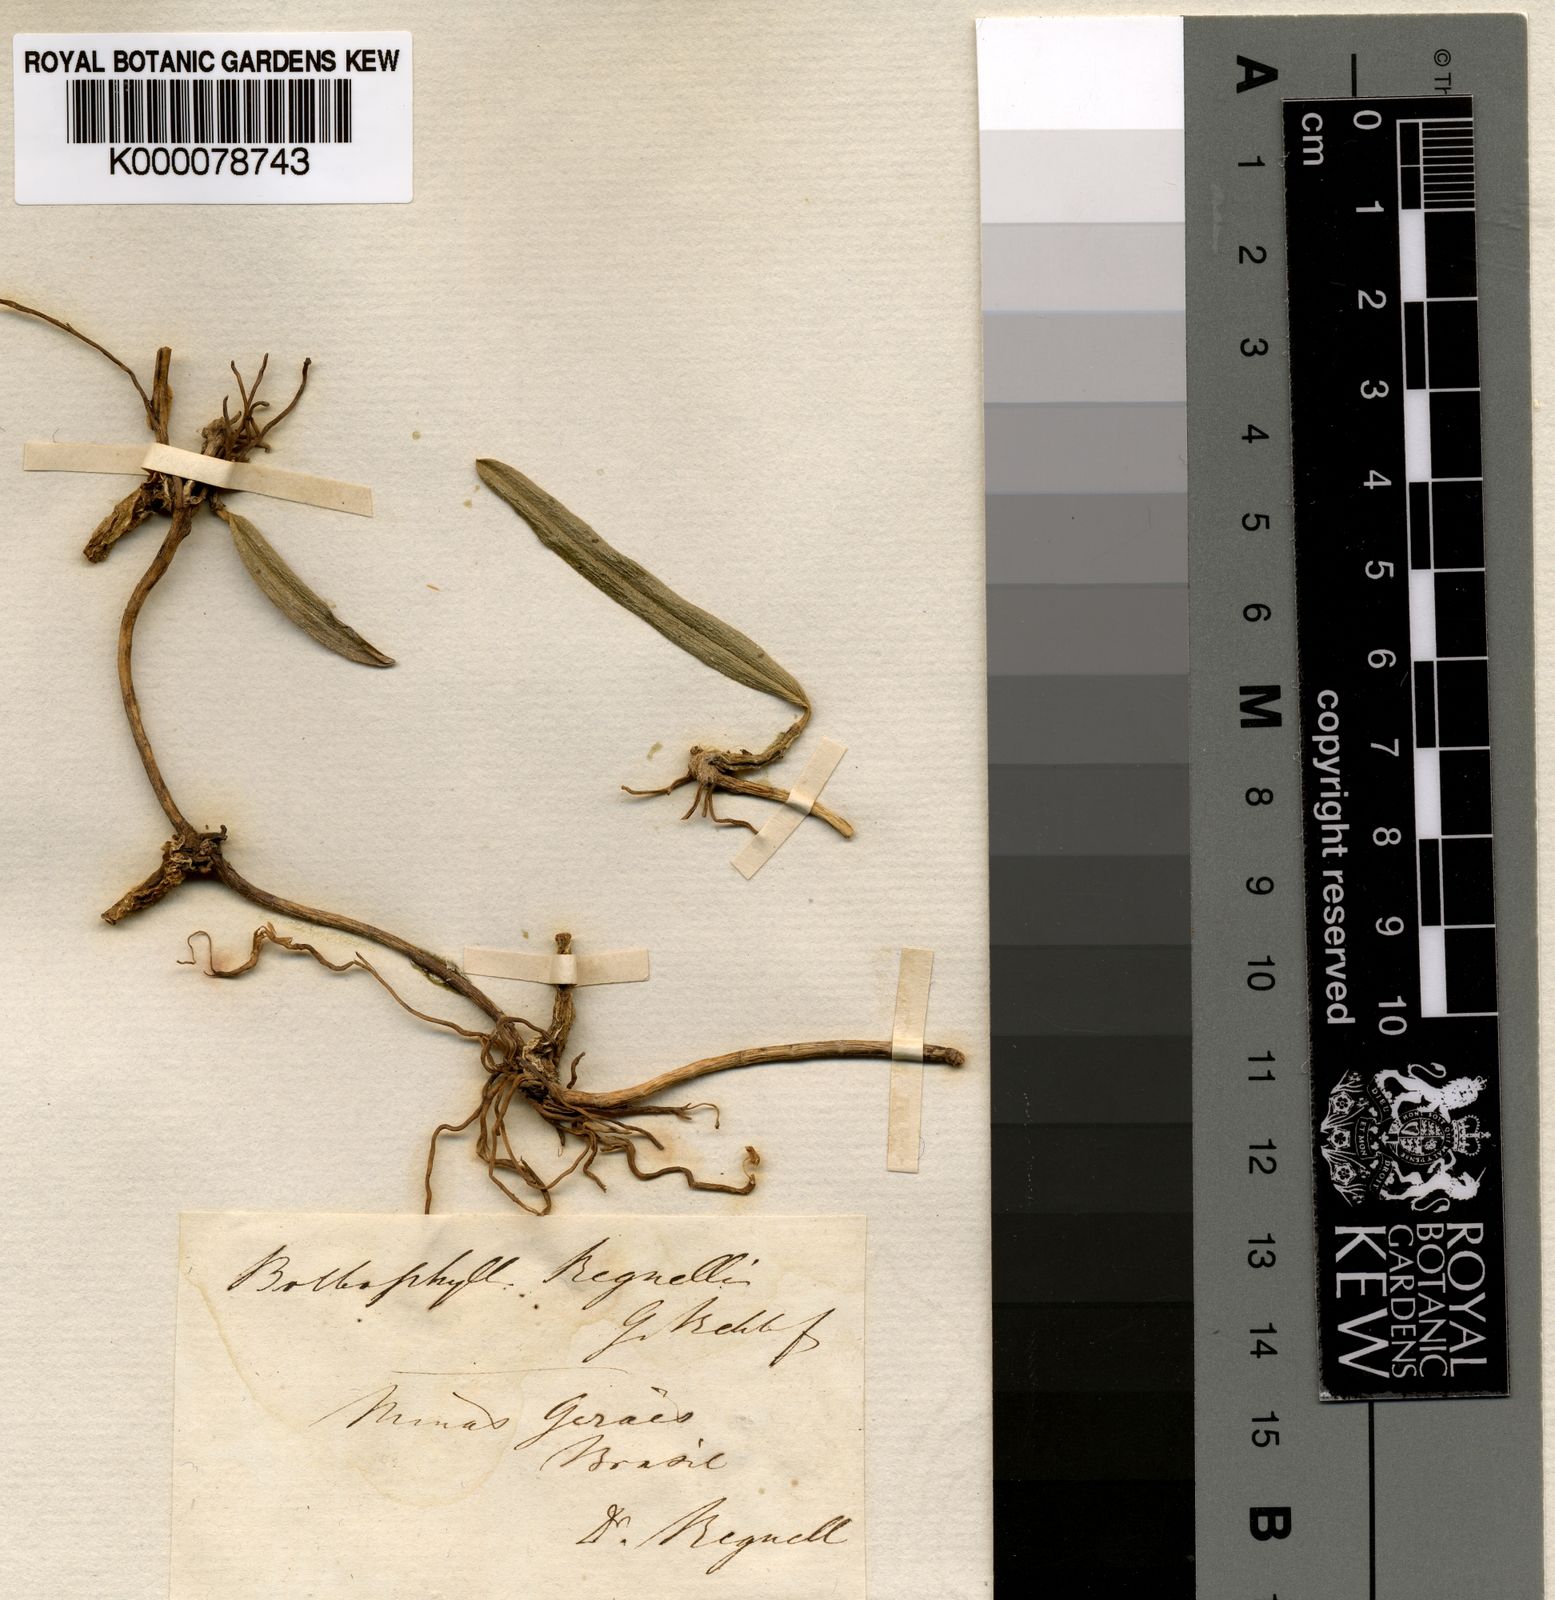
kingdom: Plantae
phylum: Tracheophyta
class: Liliopsida
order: Asparagales
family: Orchidaceae
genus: Bulbophyllum
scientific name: Bulbophyllum regnellii
